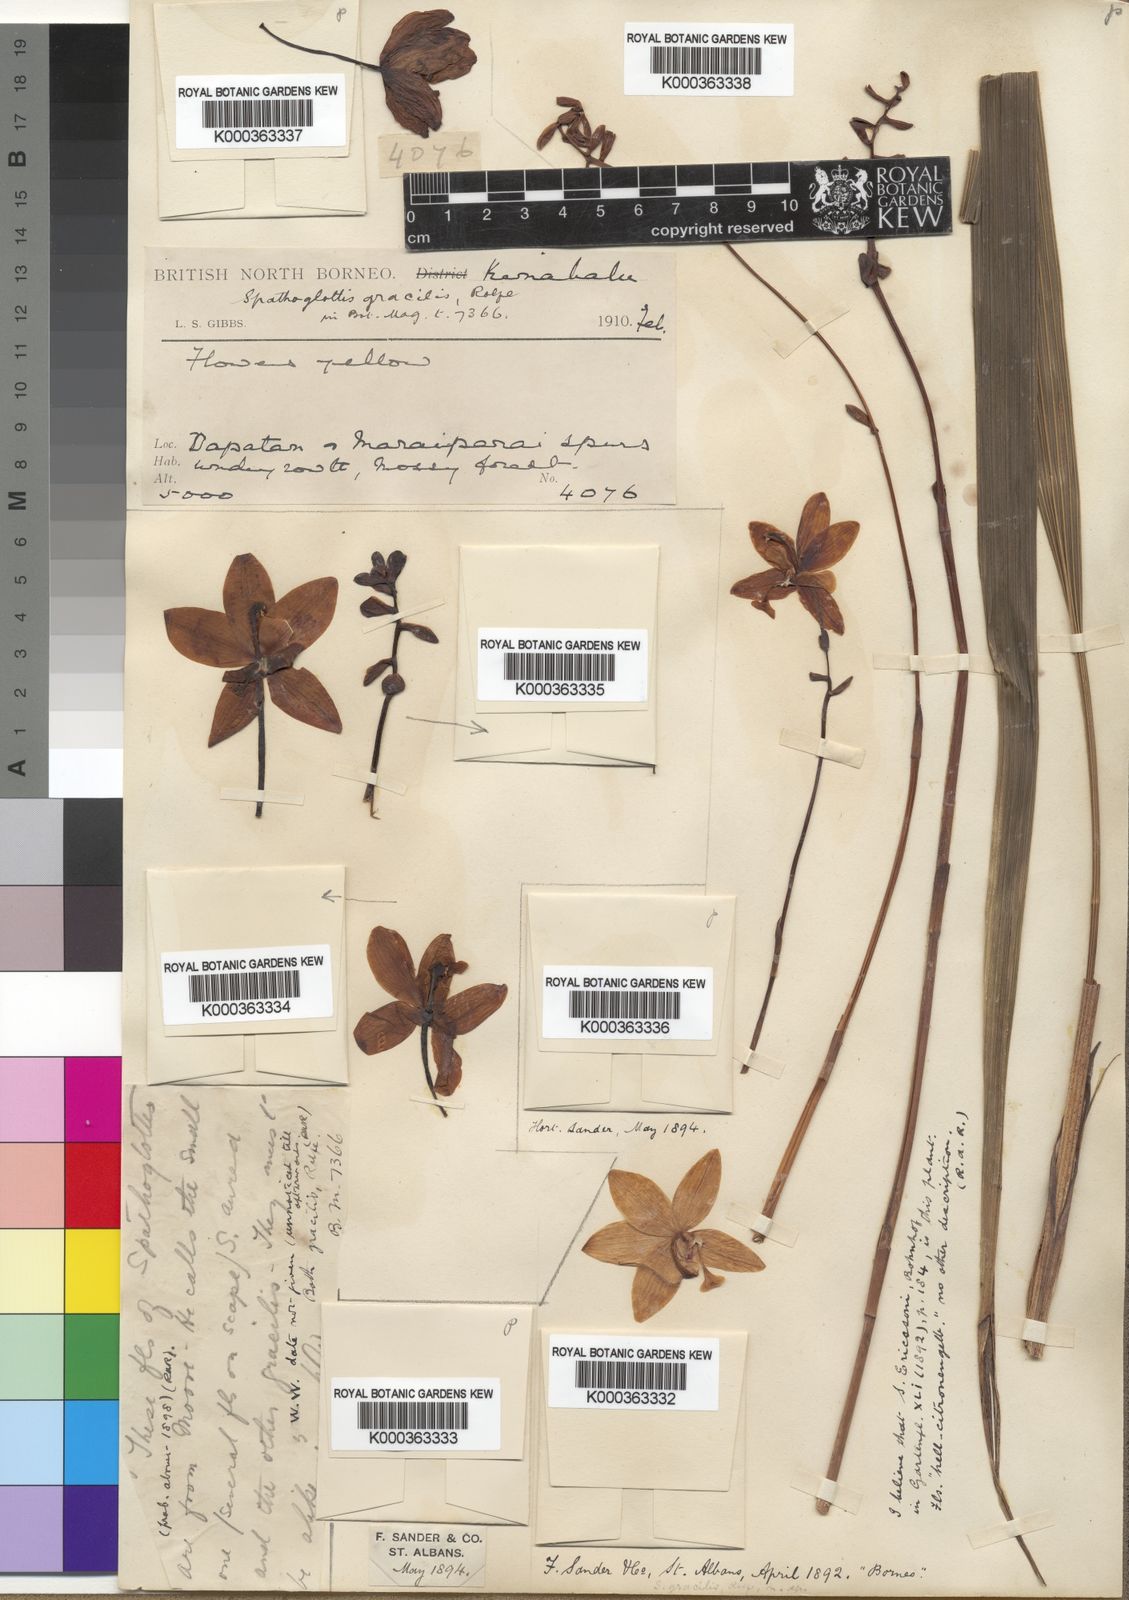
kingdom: Plantae
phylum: Tracheophyta
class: Liliopsida
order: Asparagales
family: Orchidaceae
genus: Spathoglottis
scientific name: Spathoglottis gracilis
